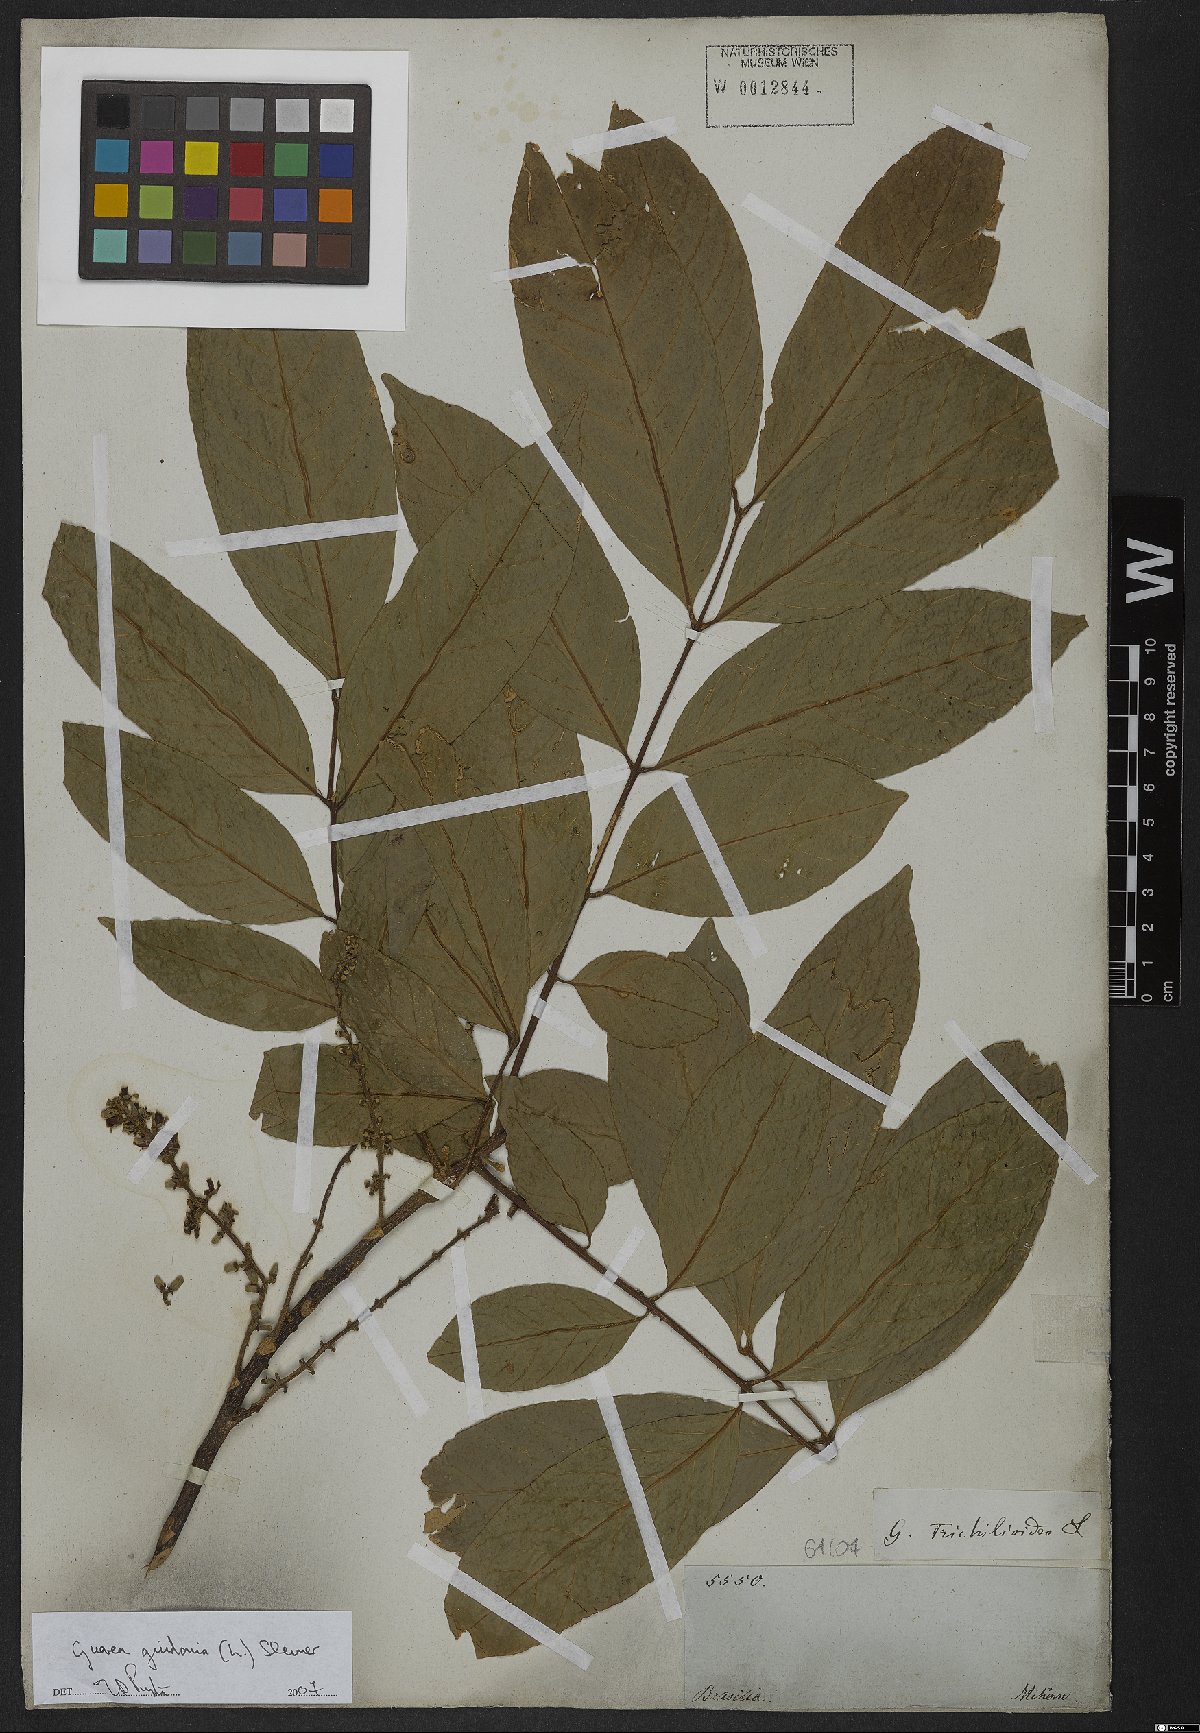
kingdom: Plantae
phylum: Tracheophyta
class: Magnoliopsida
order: Sapindales
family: Meliaceae
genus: Guarea
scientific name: Guarea guidonia
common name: American muskwood
